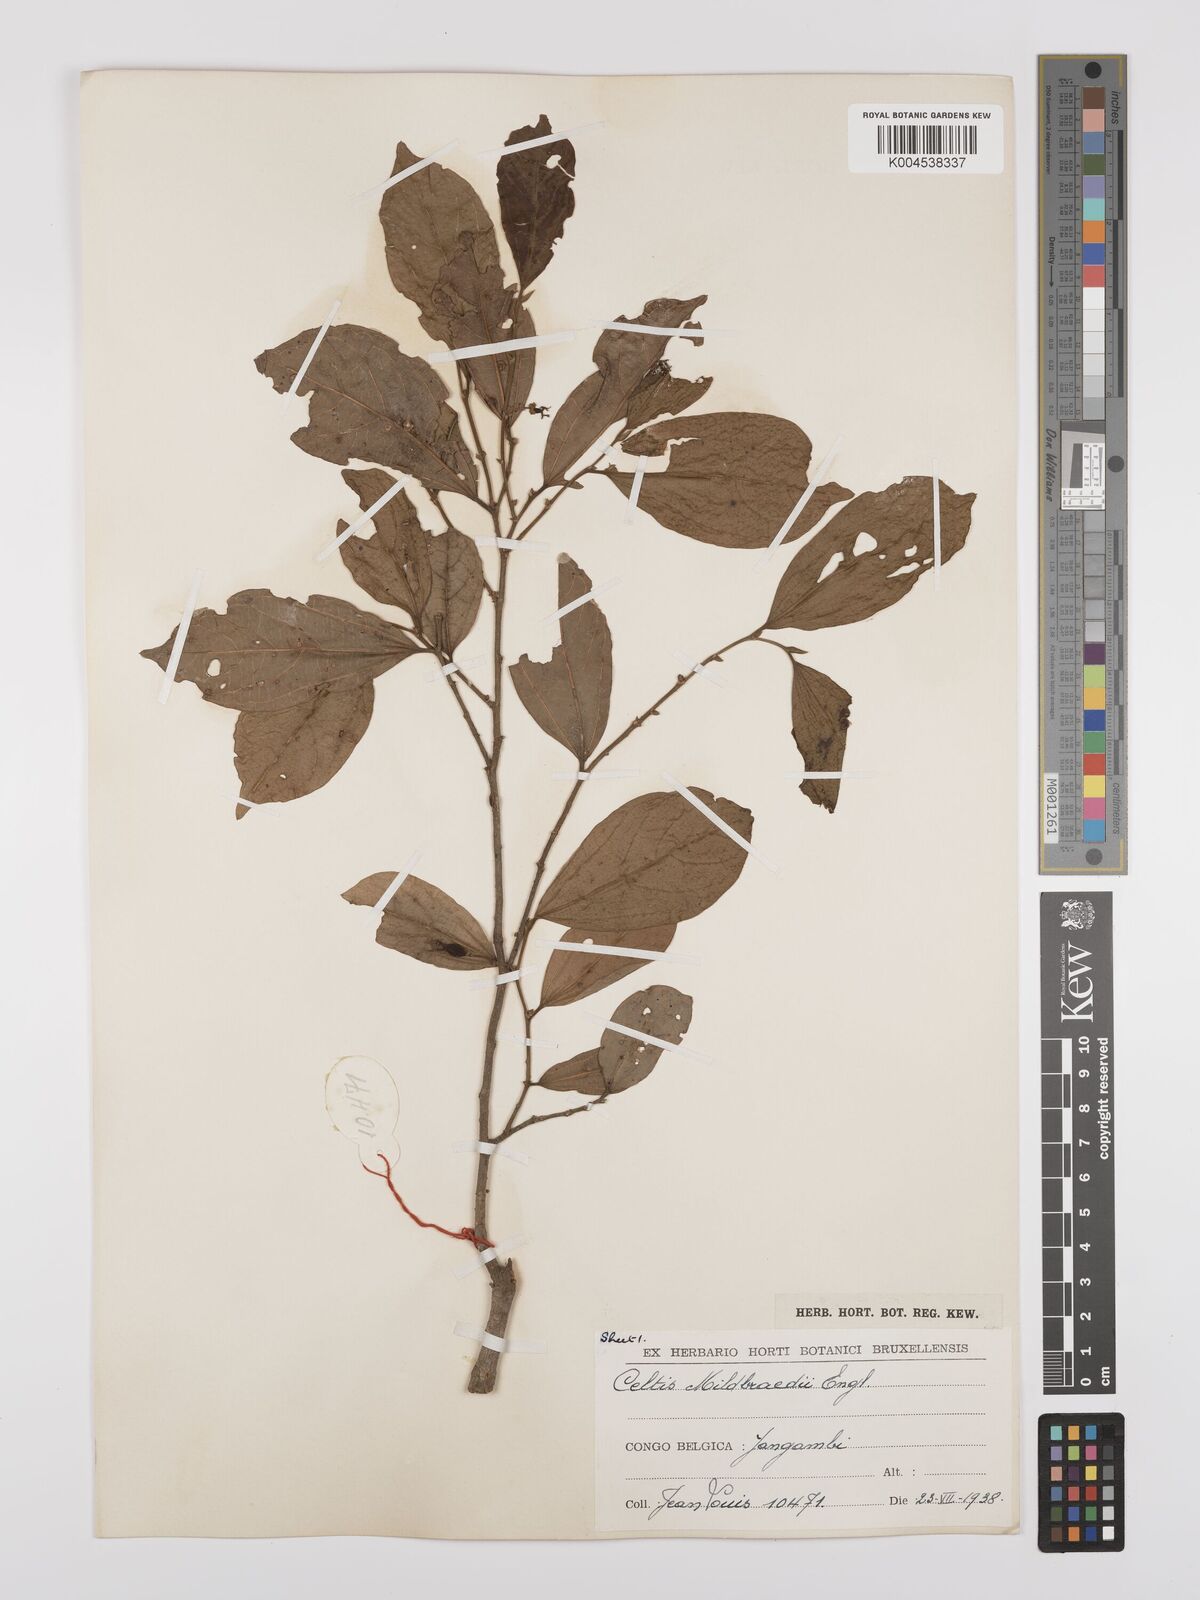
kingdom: Plantae
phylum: Tracheophyta
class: Magnoliopsida
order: Rosales
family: Cannabaceae
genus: Celtis
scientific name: Celtis mildbraedii
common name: Red-fruited stinkwood
